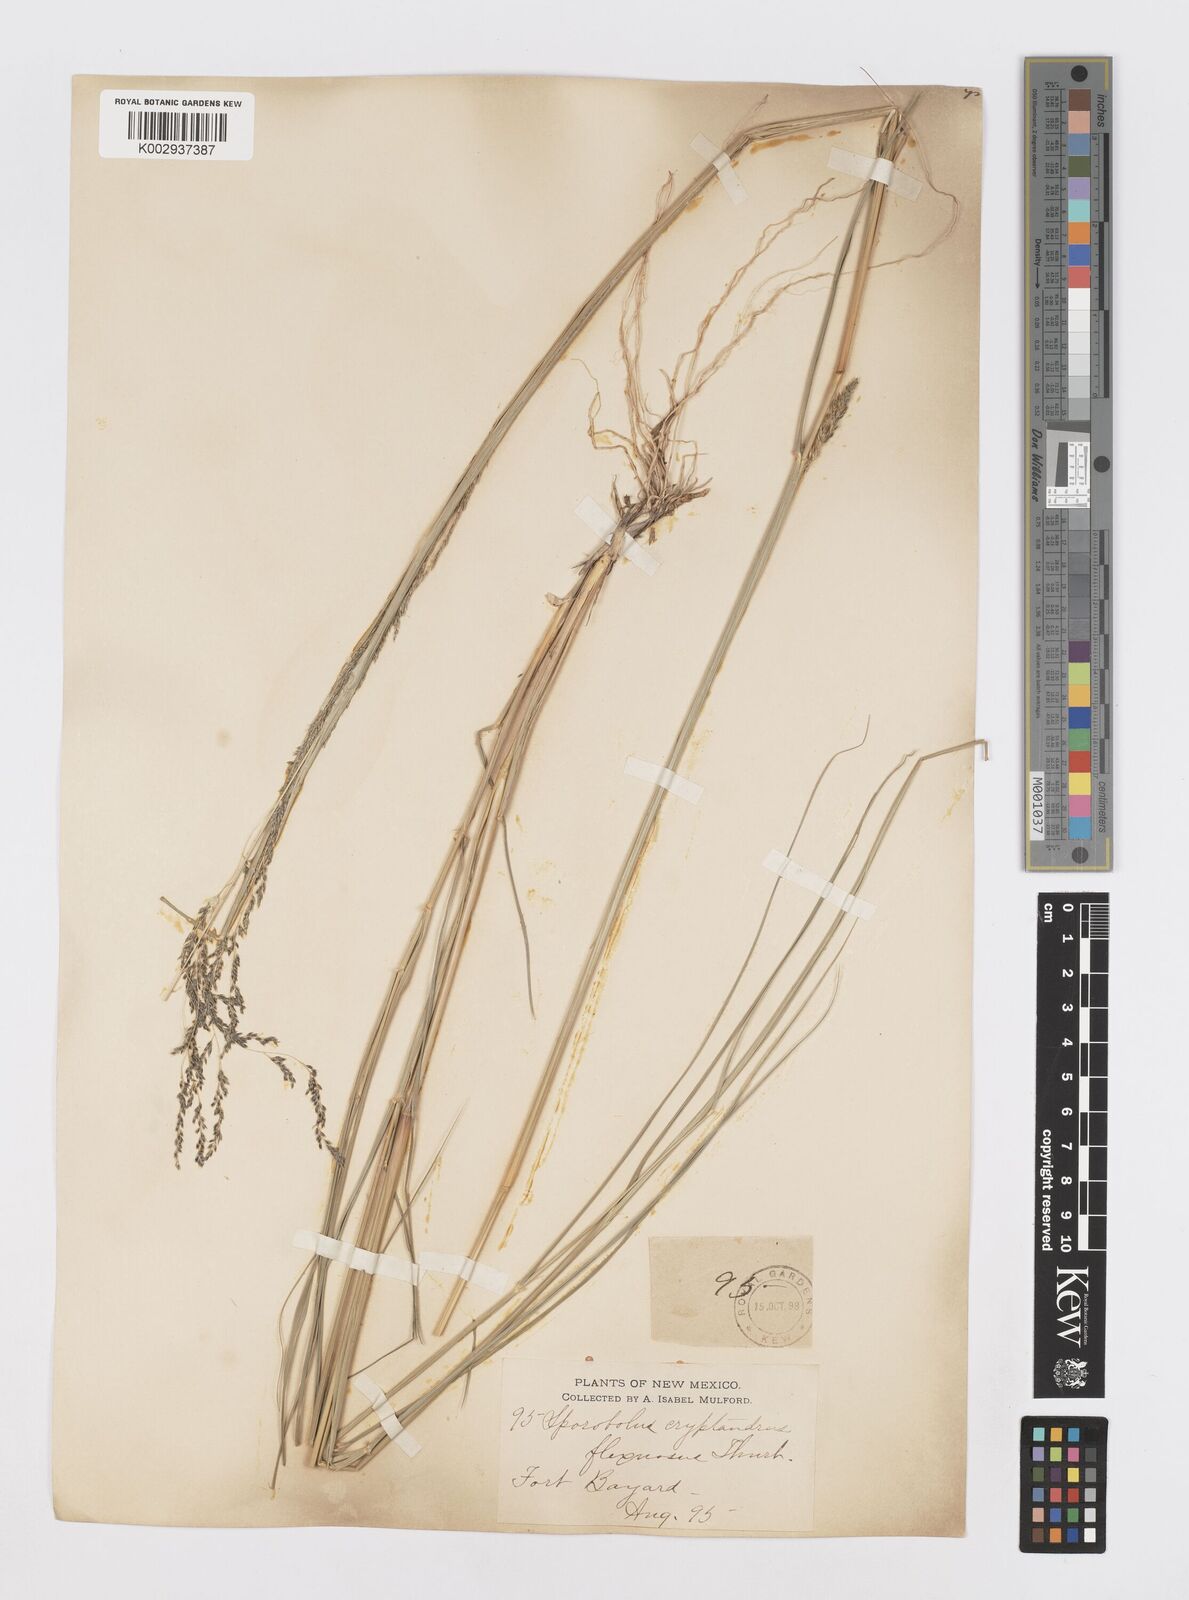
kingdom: Plantae
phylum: Tracheophyta
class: Liliopsida
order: Poales
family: Poaceae
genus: Sporobolus
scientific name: Sporobolus cryptandrus
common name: Sand dropseed
